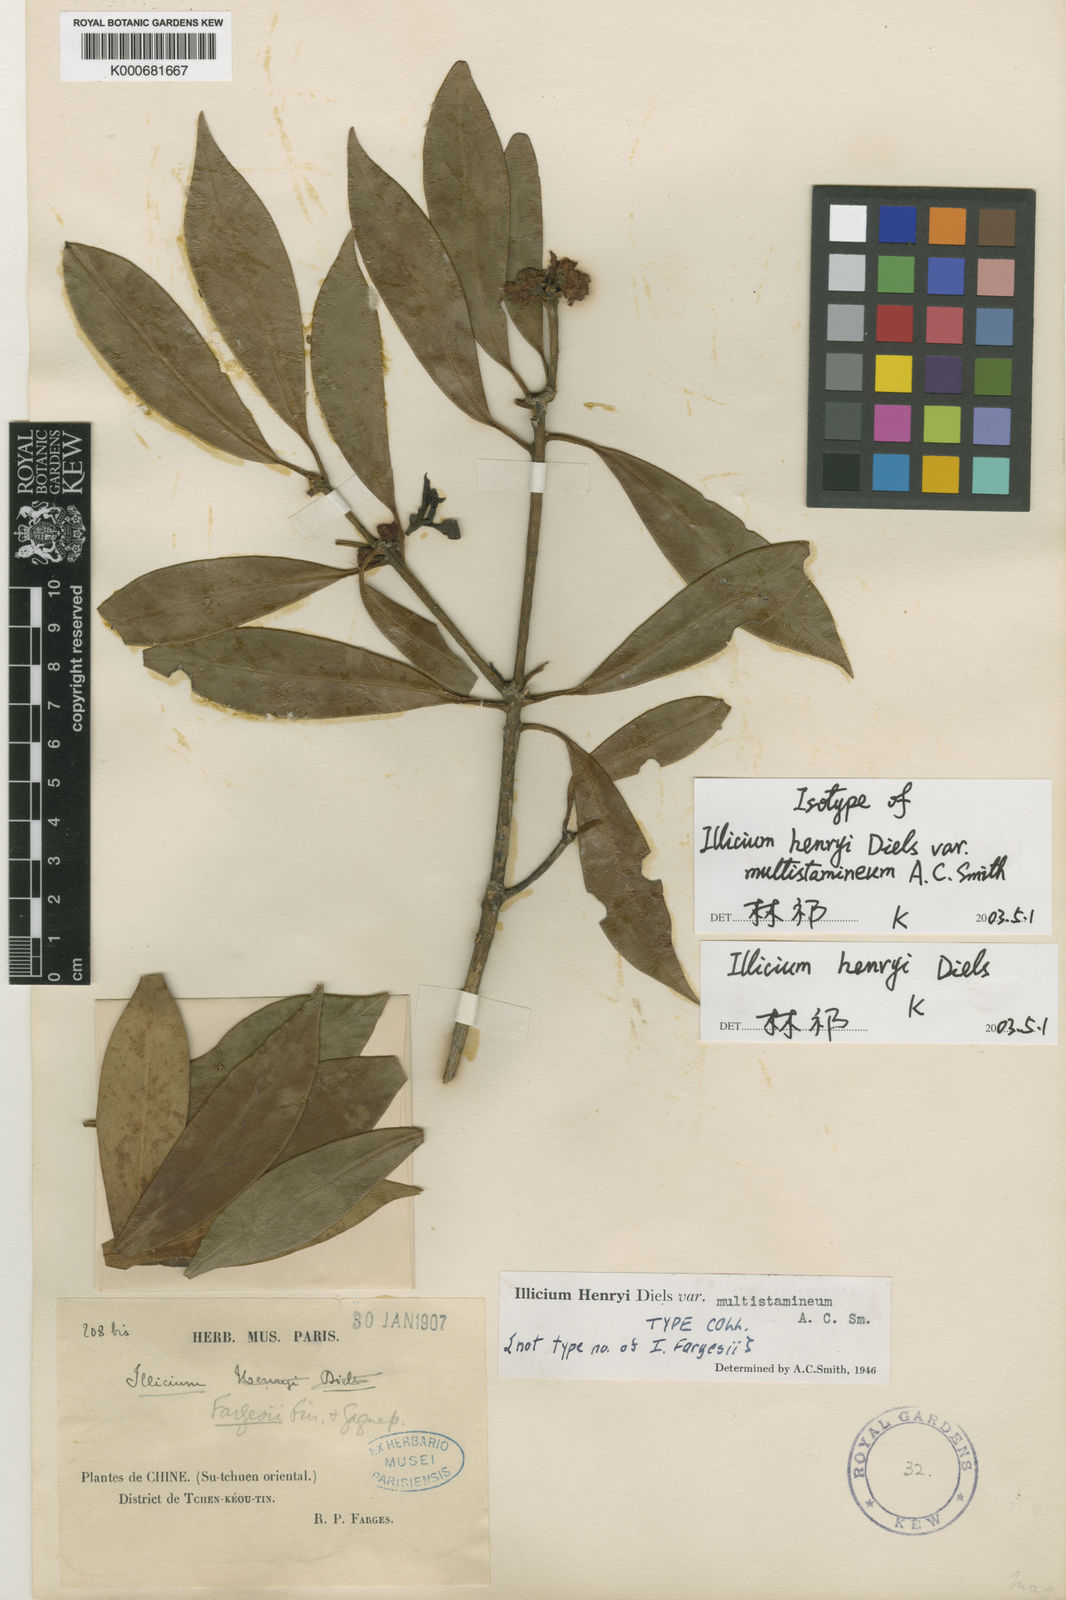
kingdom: Plantae
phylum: Tracheophyta
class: Magnoliopsida
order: Austrobaileyales
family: Schisandraceae
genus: Illicium
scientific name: Illicium henryi
